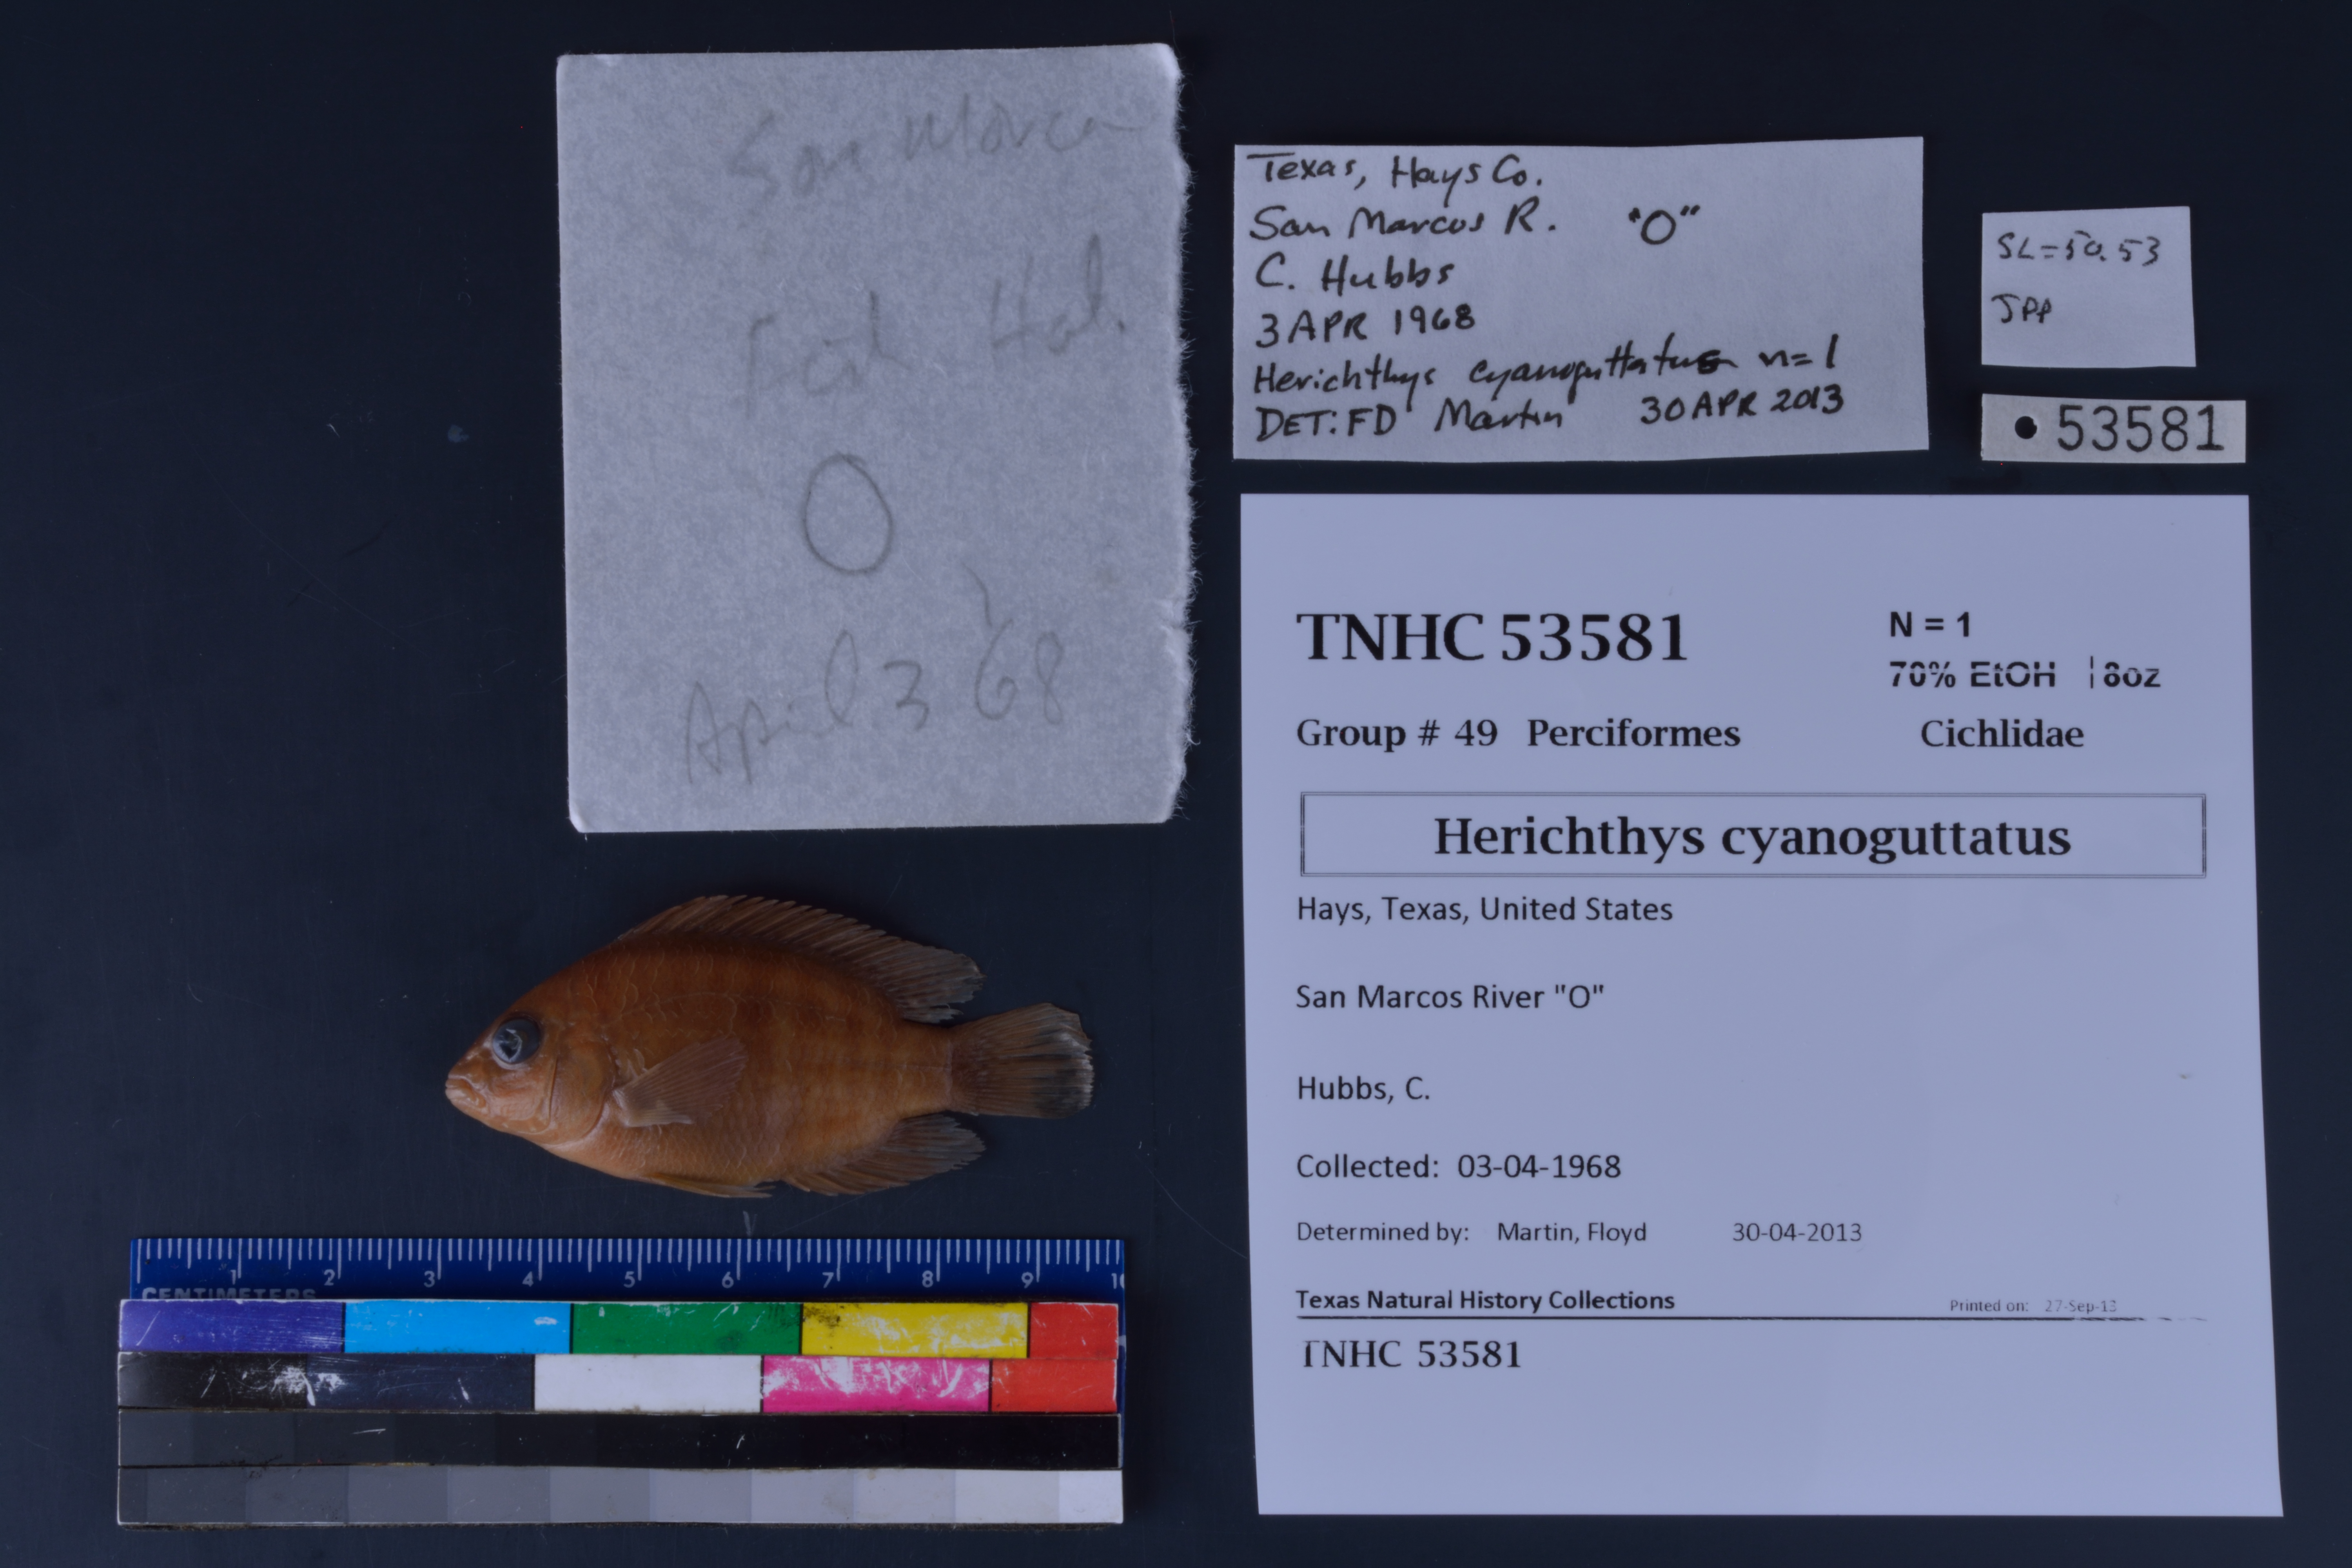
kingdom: Animalia
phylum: Chordata
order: Perciformes
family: Cichlidae
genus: Herichthys
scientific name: Herichthys cyanoguttatus
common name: Rio grande cichlid
